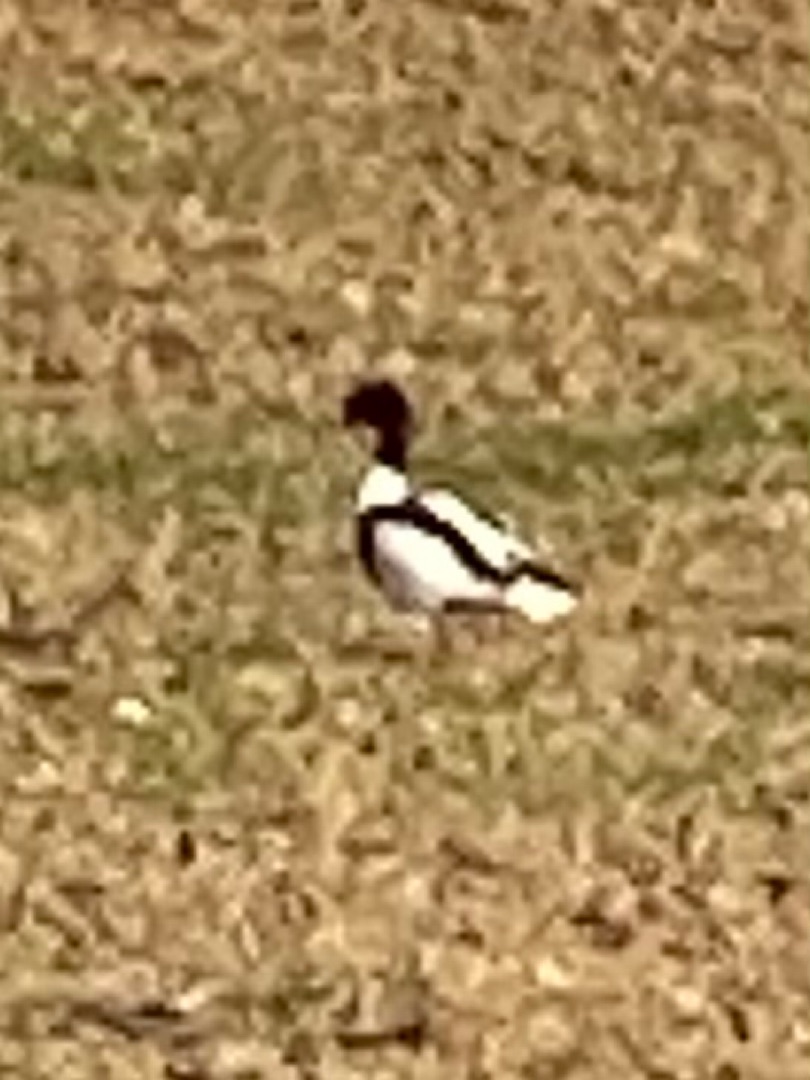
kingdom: Animalia
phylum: Chordata
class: Aves
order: Anseriformes
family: Anatidae
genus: Tadorna
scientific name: Tadorna tadorna
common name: Gravand
